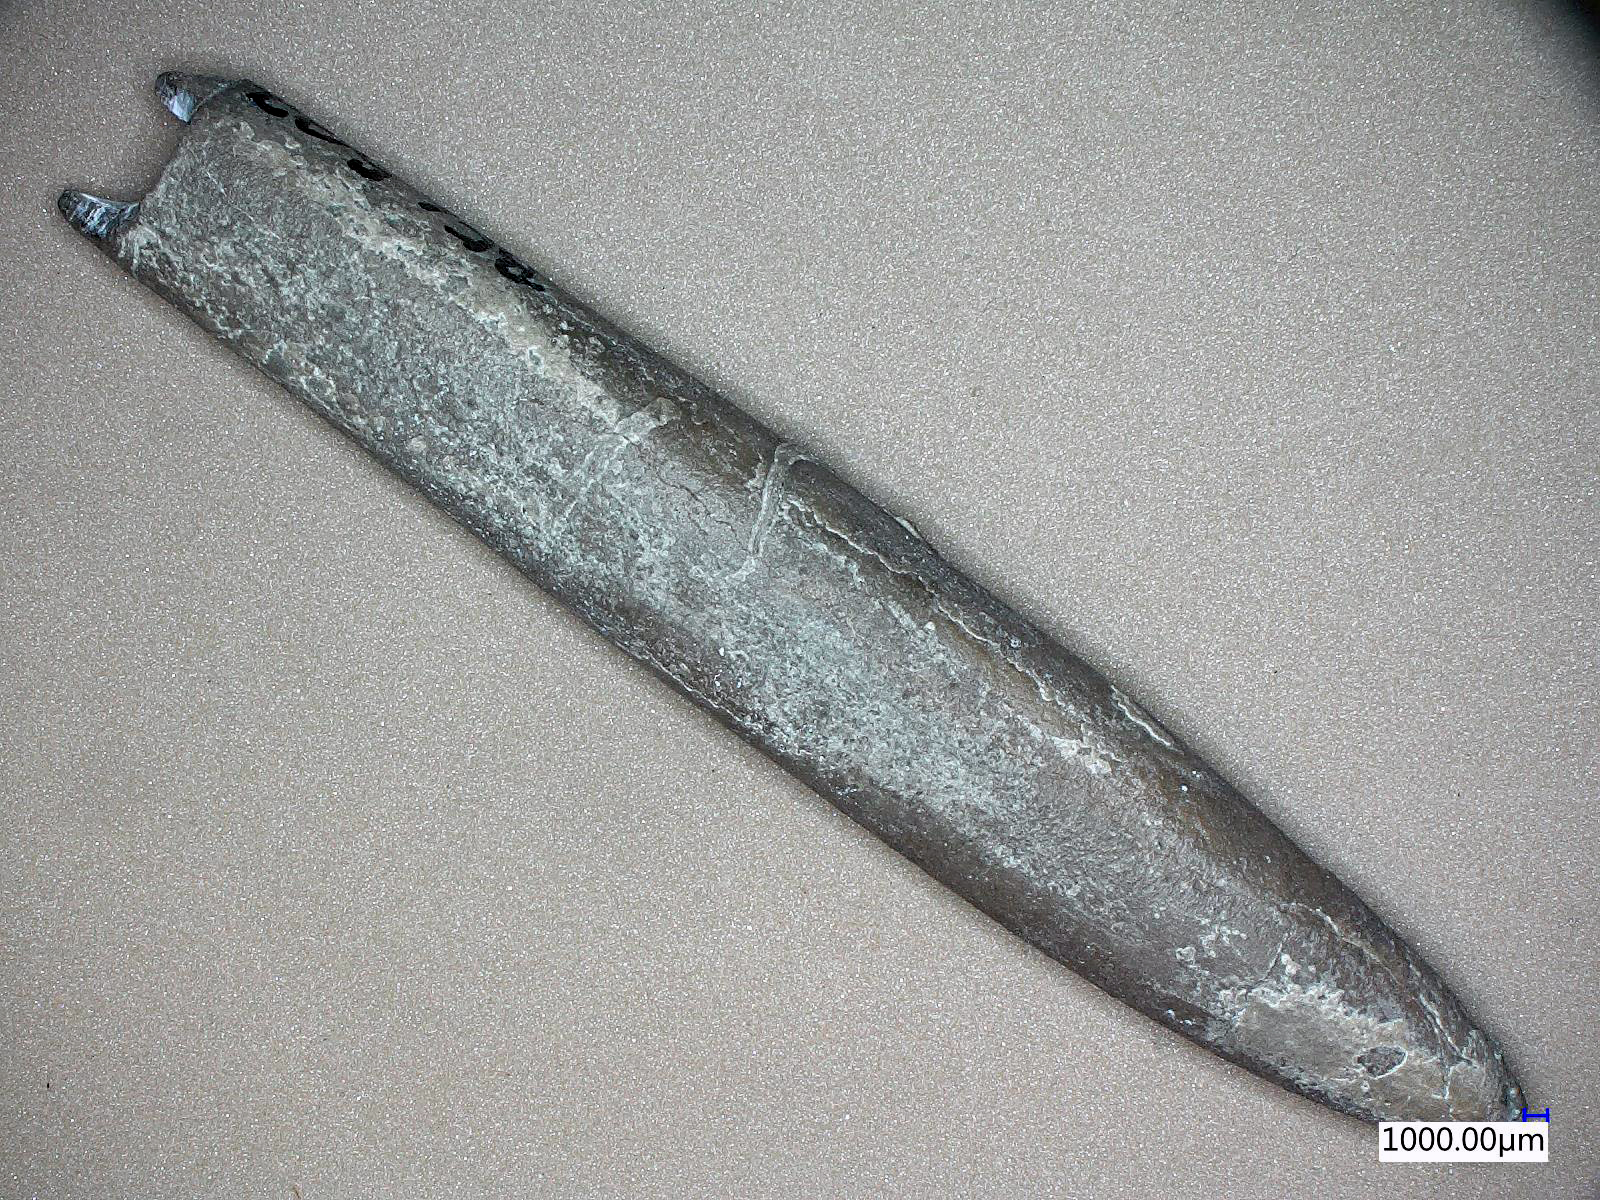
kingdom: Animalia
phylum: Mollusca
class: Cephalopoda
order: Belemnitida
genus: Gastrobelus
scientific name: Gastrobelus
